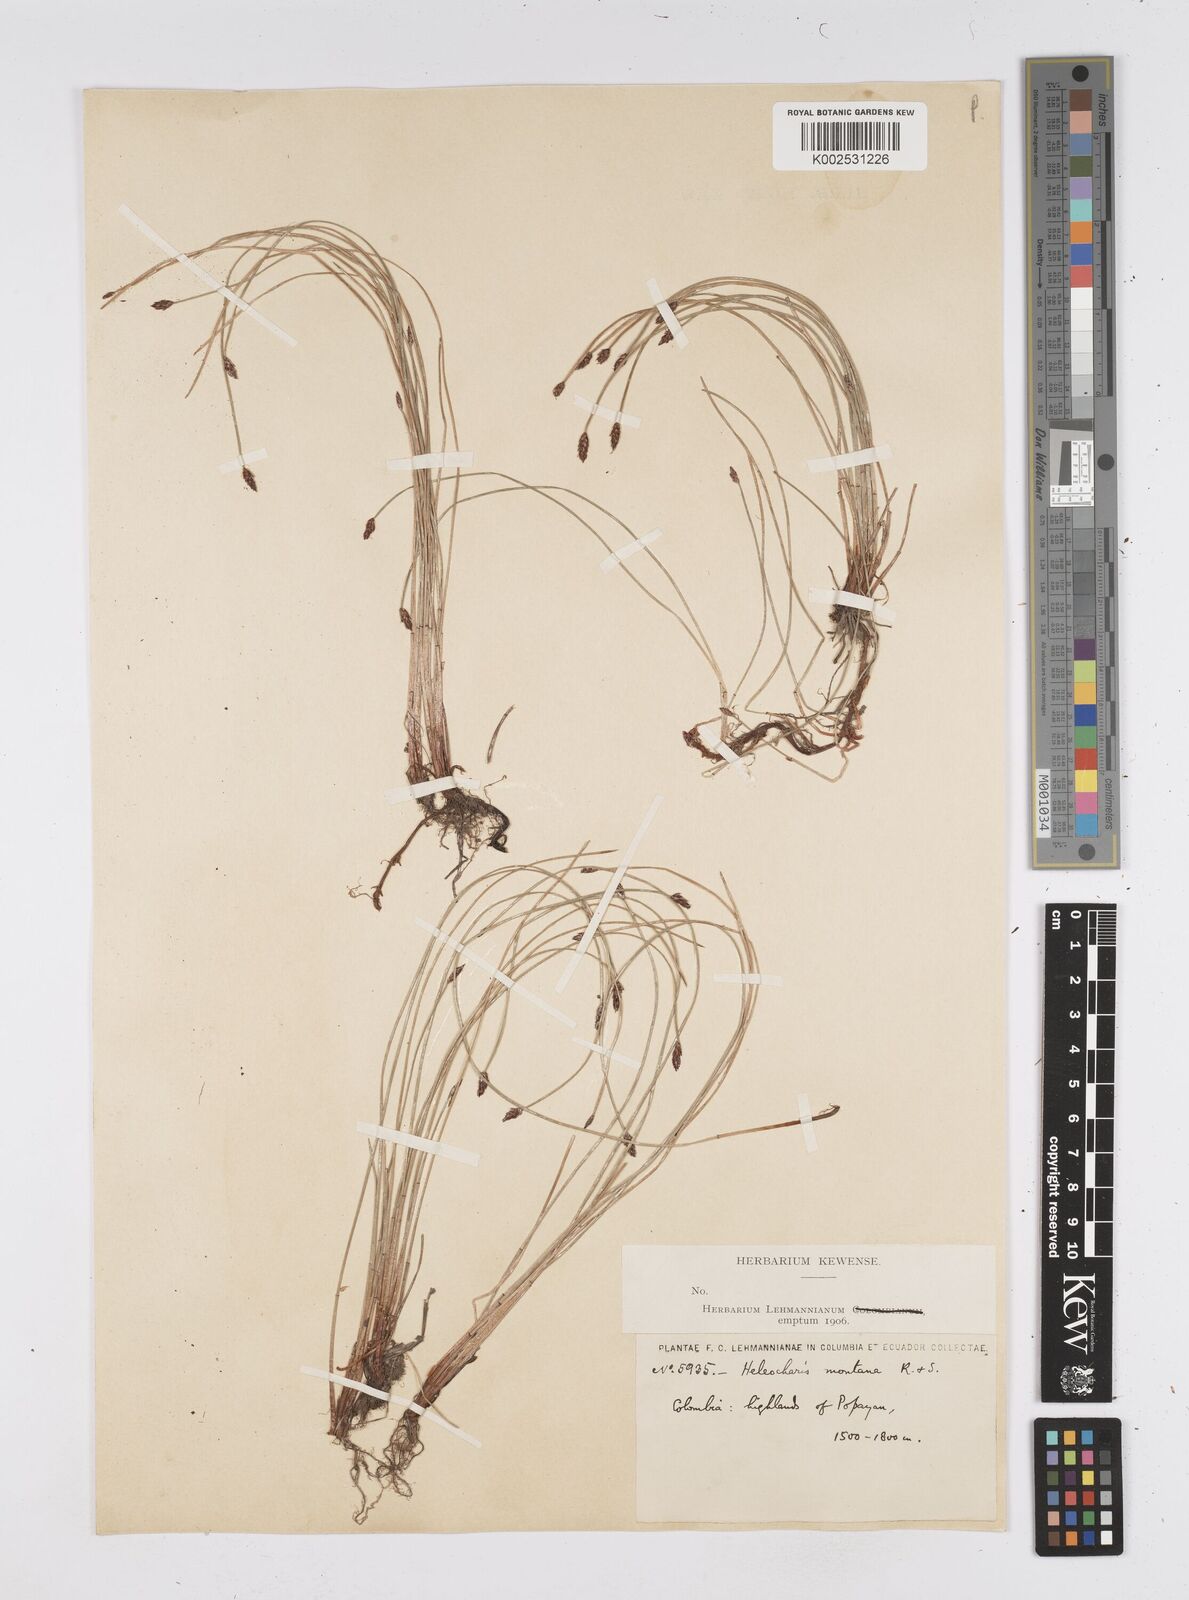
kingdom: Plantae
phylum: Tracheophyta
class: Liliopsida
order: Poales
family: Cyperaceae
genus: Eleocharis
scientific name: Eleocharis montana
